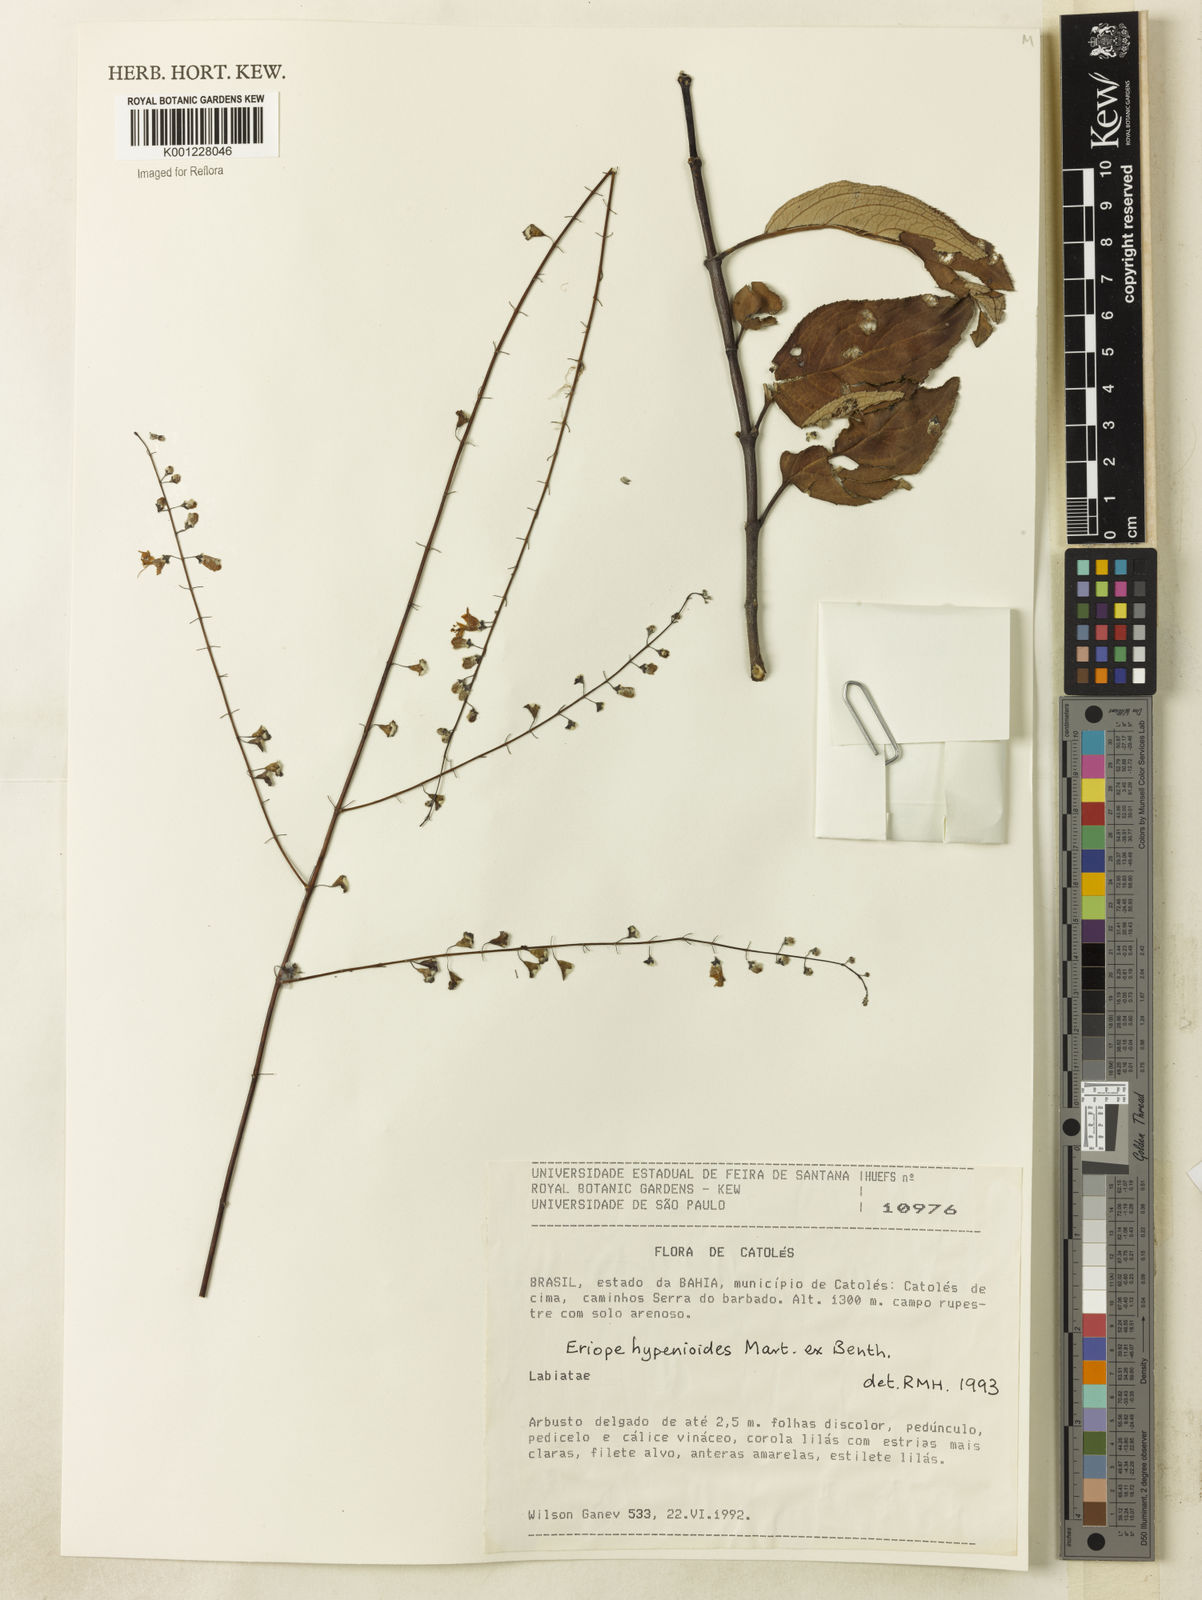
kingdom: Plantae
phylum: Tracheophyta
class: Magnoliopsida
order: Lamiales
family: Lamiaceae
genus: Eriope
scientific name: Eriope hypenioides
